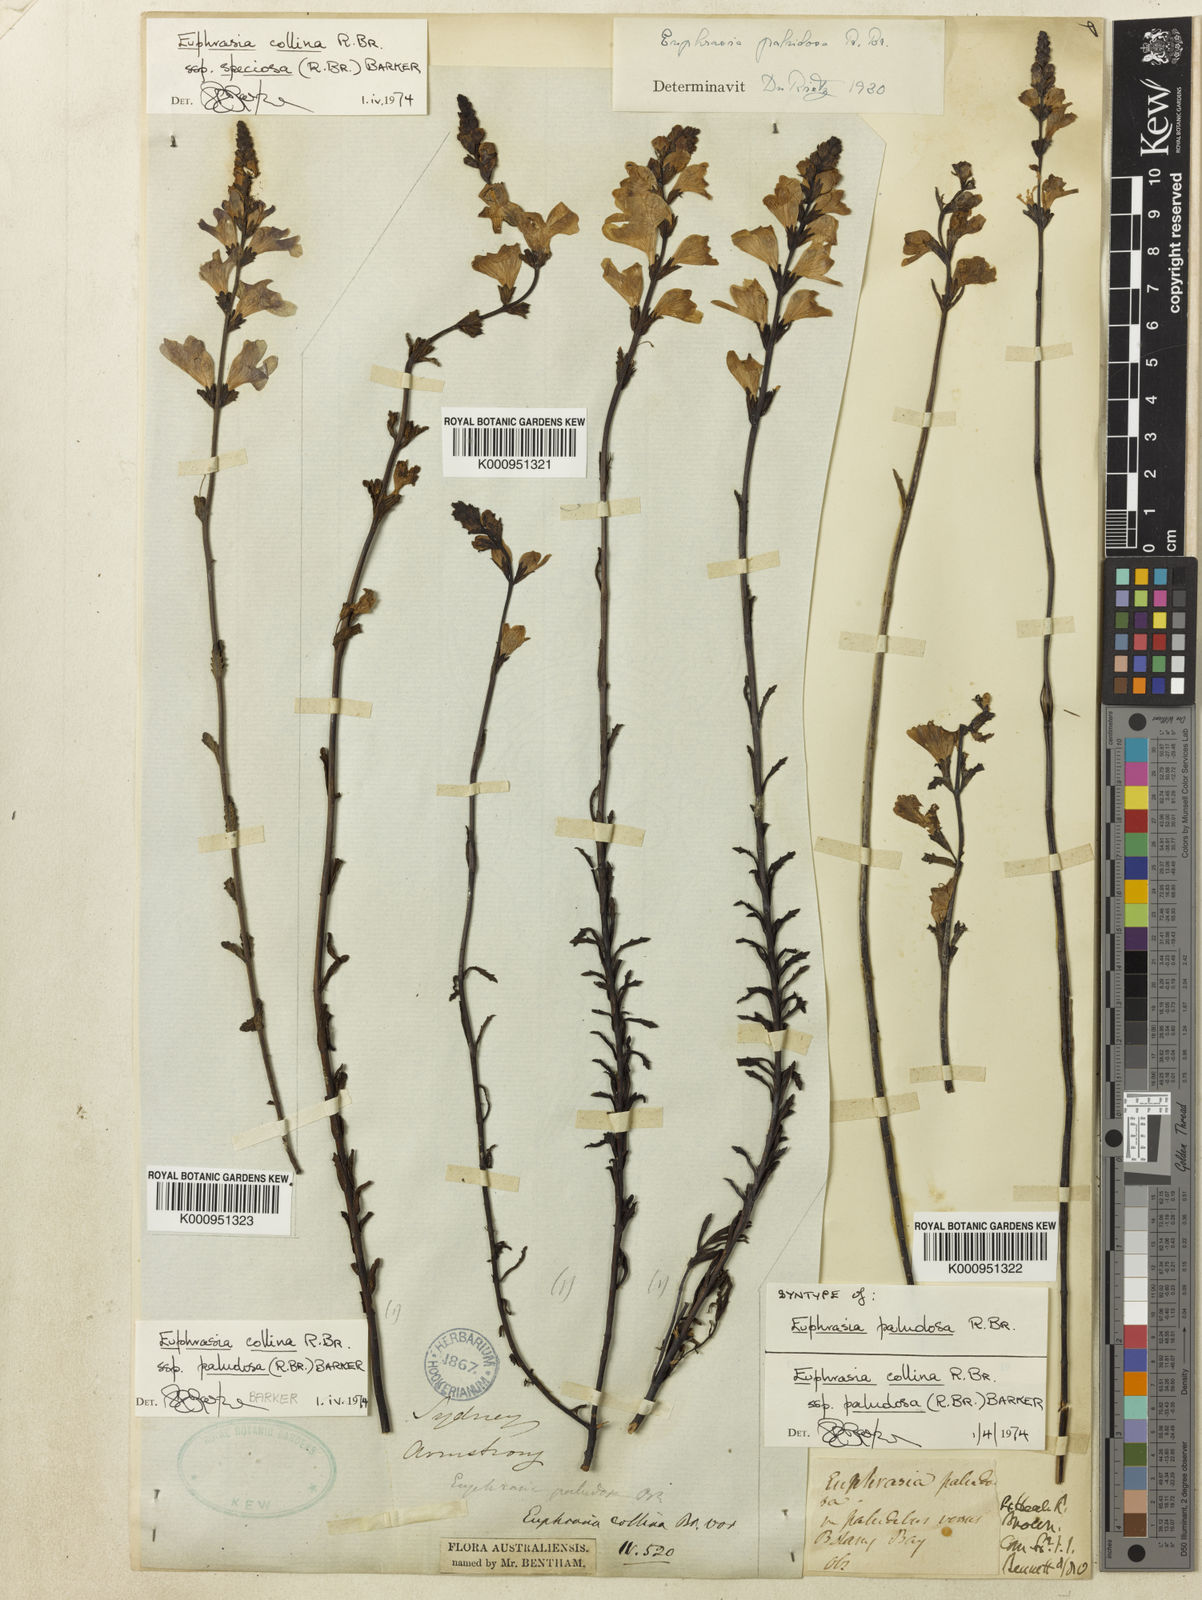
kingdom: Plantae
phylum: Tracheophyta
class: Magnoliopsida
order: Lamiales
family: Orobanchaceae
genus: Euphrasia
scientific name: Euphrasia collina
